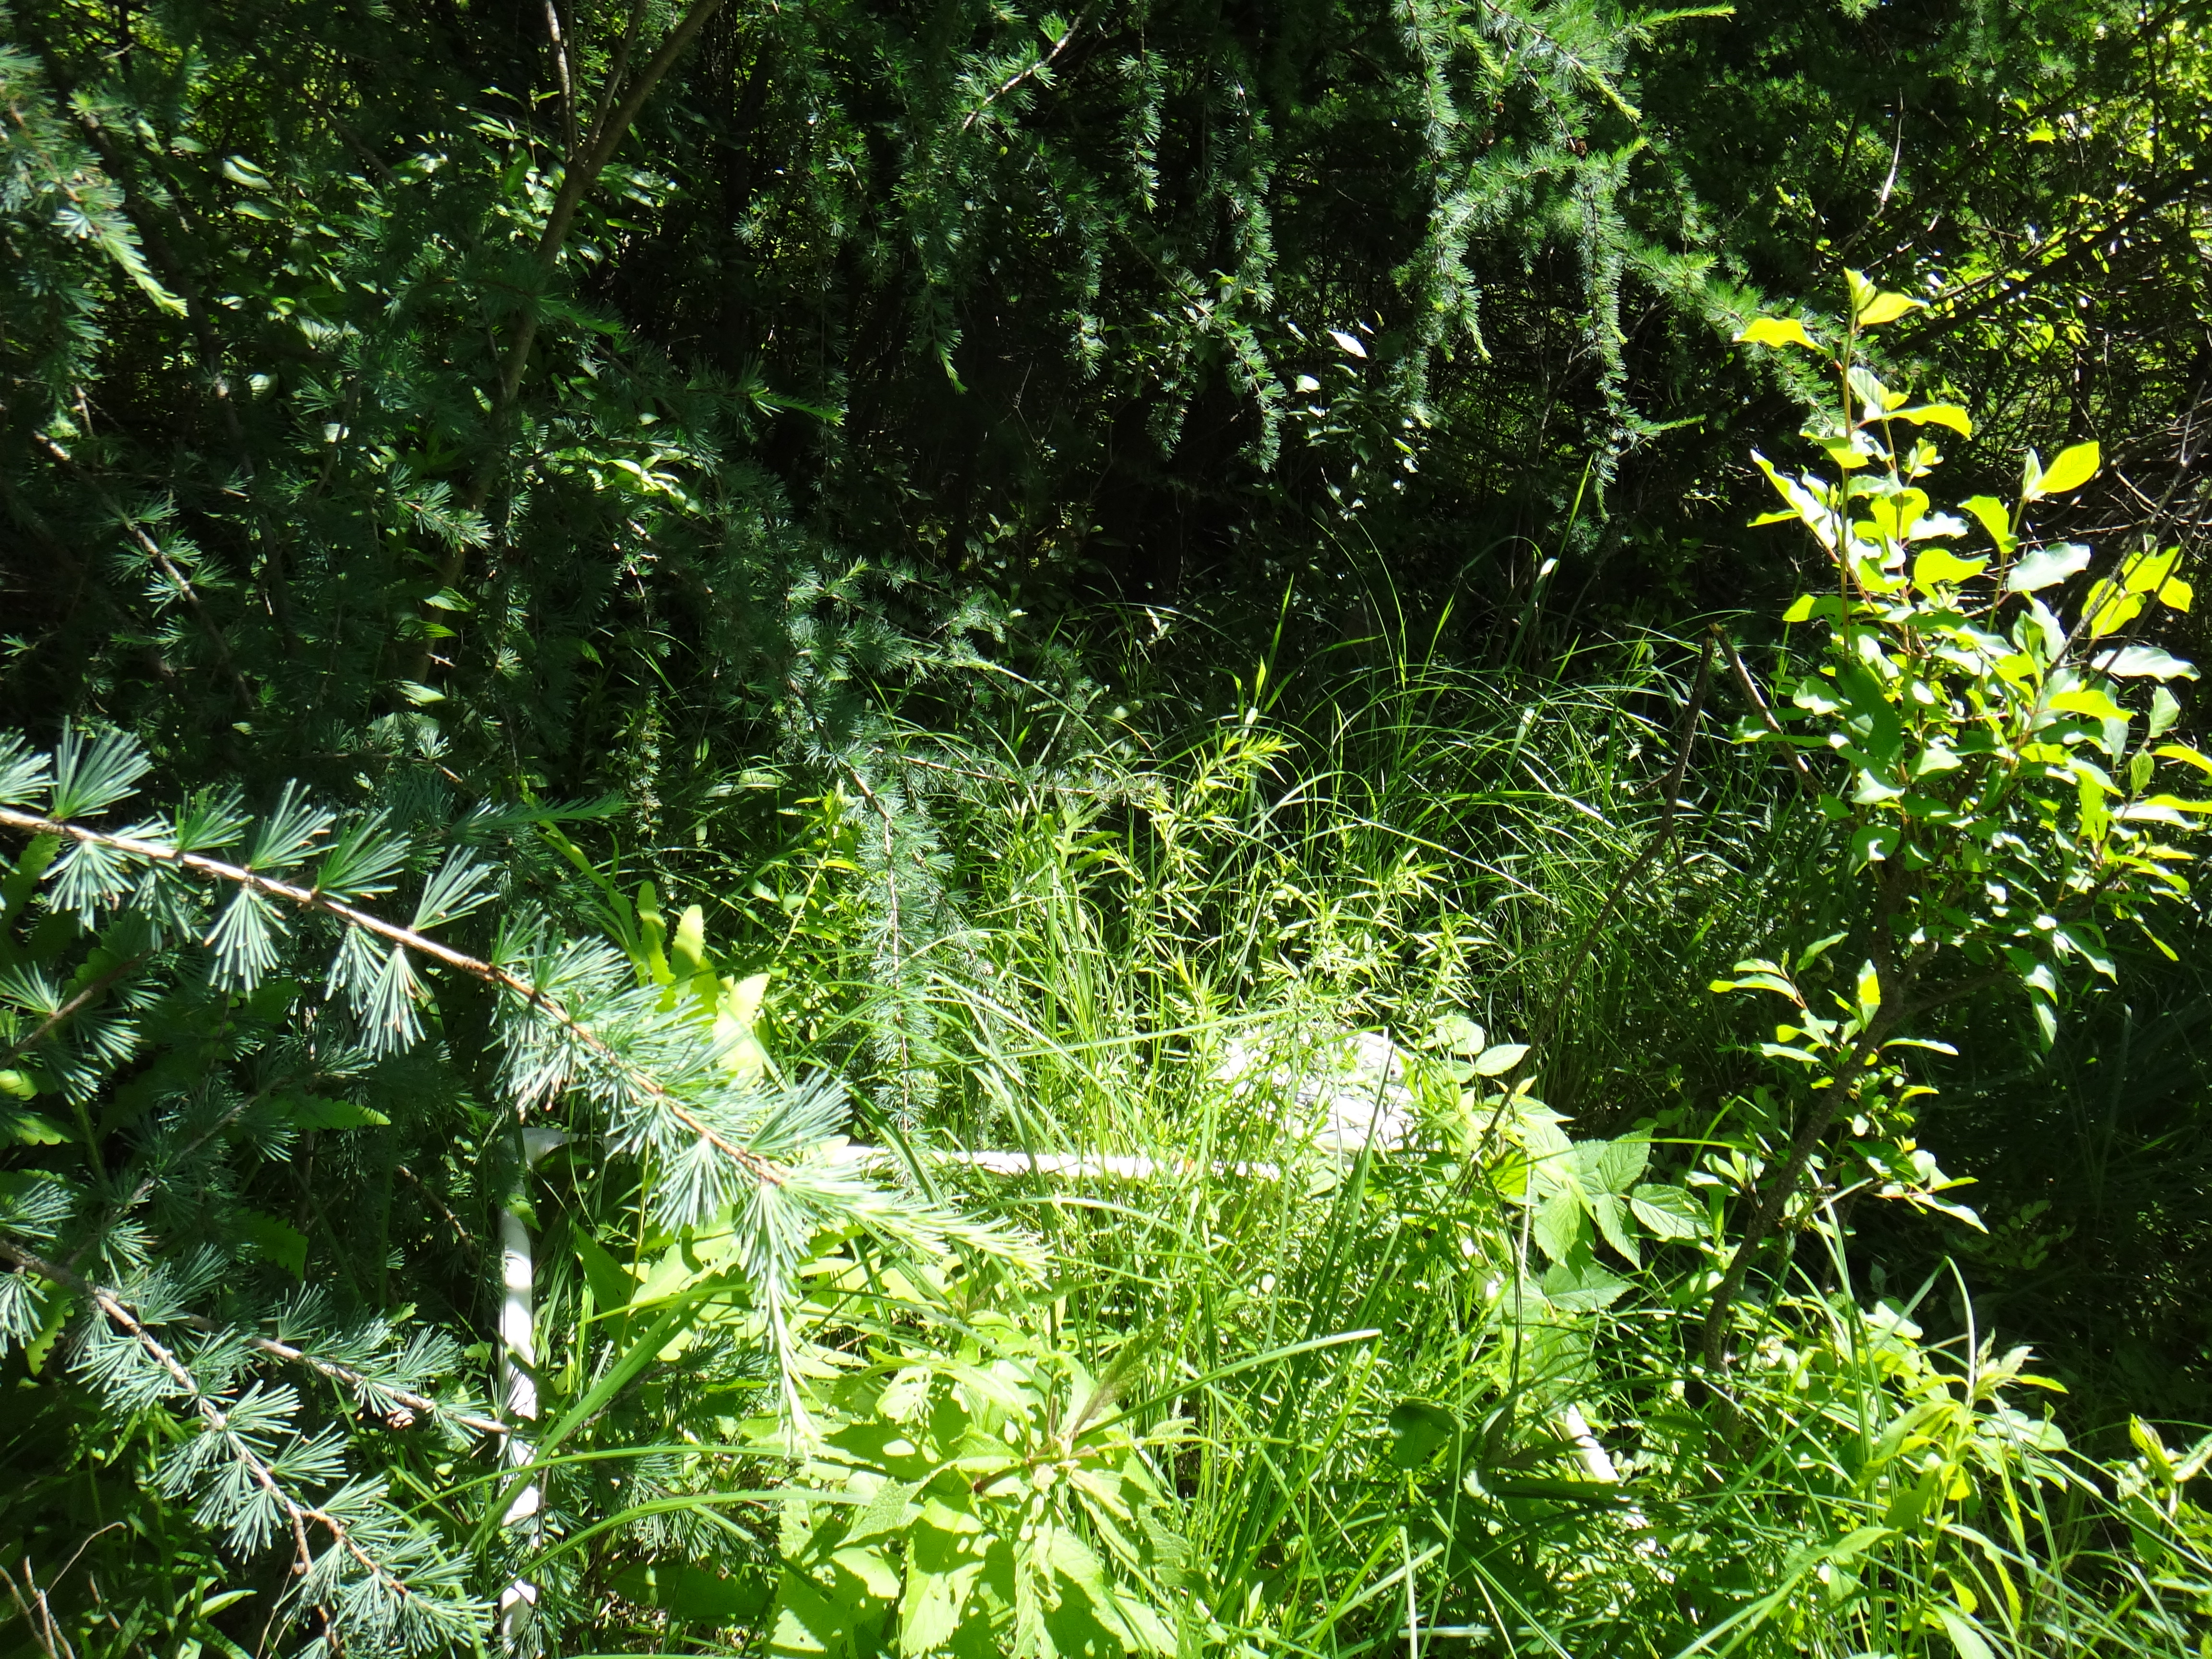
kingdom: Plantae
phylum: Tracheophyta
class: Magnoliopsida
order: Cornales
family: Cornaceae
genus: Cornus
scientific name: Cornus amomum
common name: Silky dogwood
